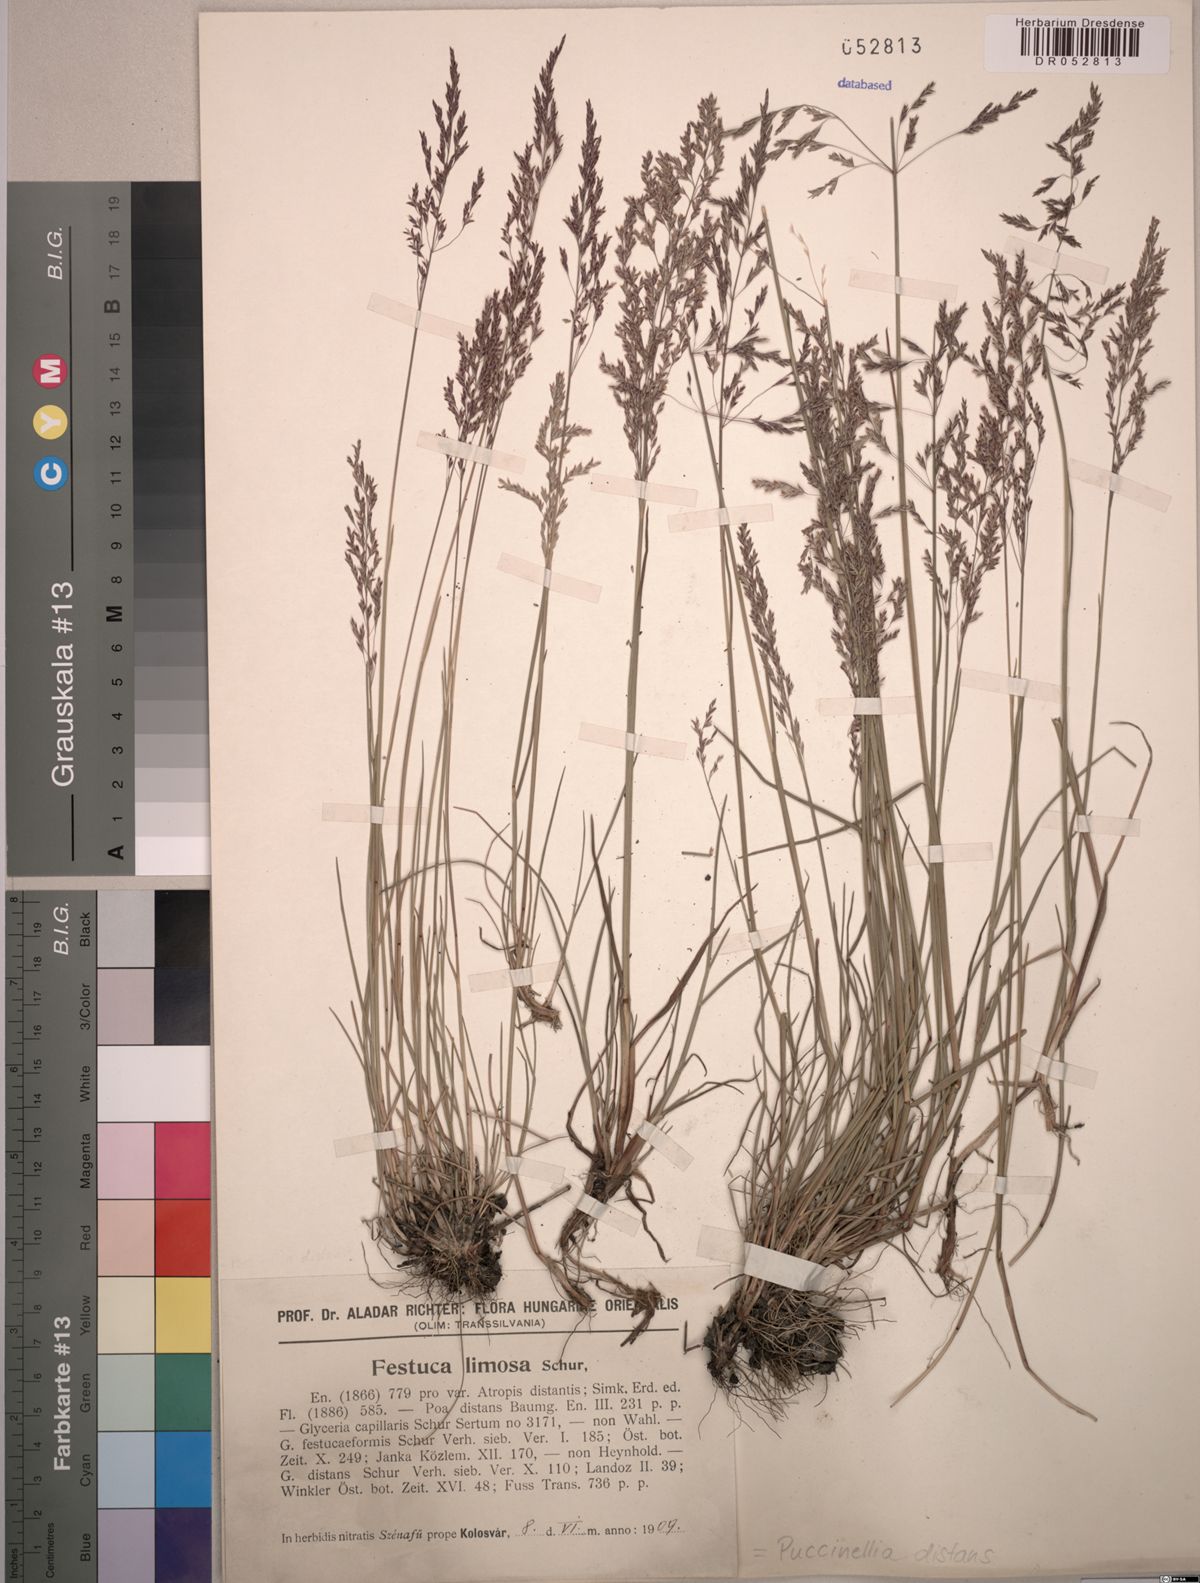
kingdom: Plantae
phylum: Tracheophyta
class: Liliopsida
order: Poales
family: Poaceae
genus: Puccinellia
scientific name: Puccinellia distans
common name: Weeping alkaligrass
